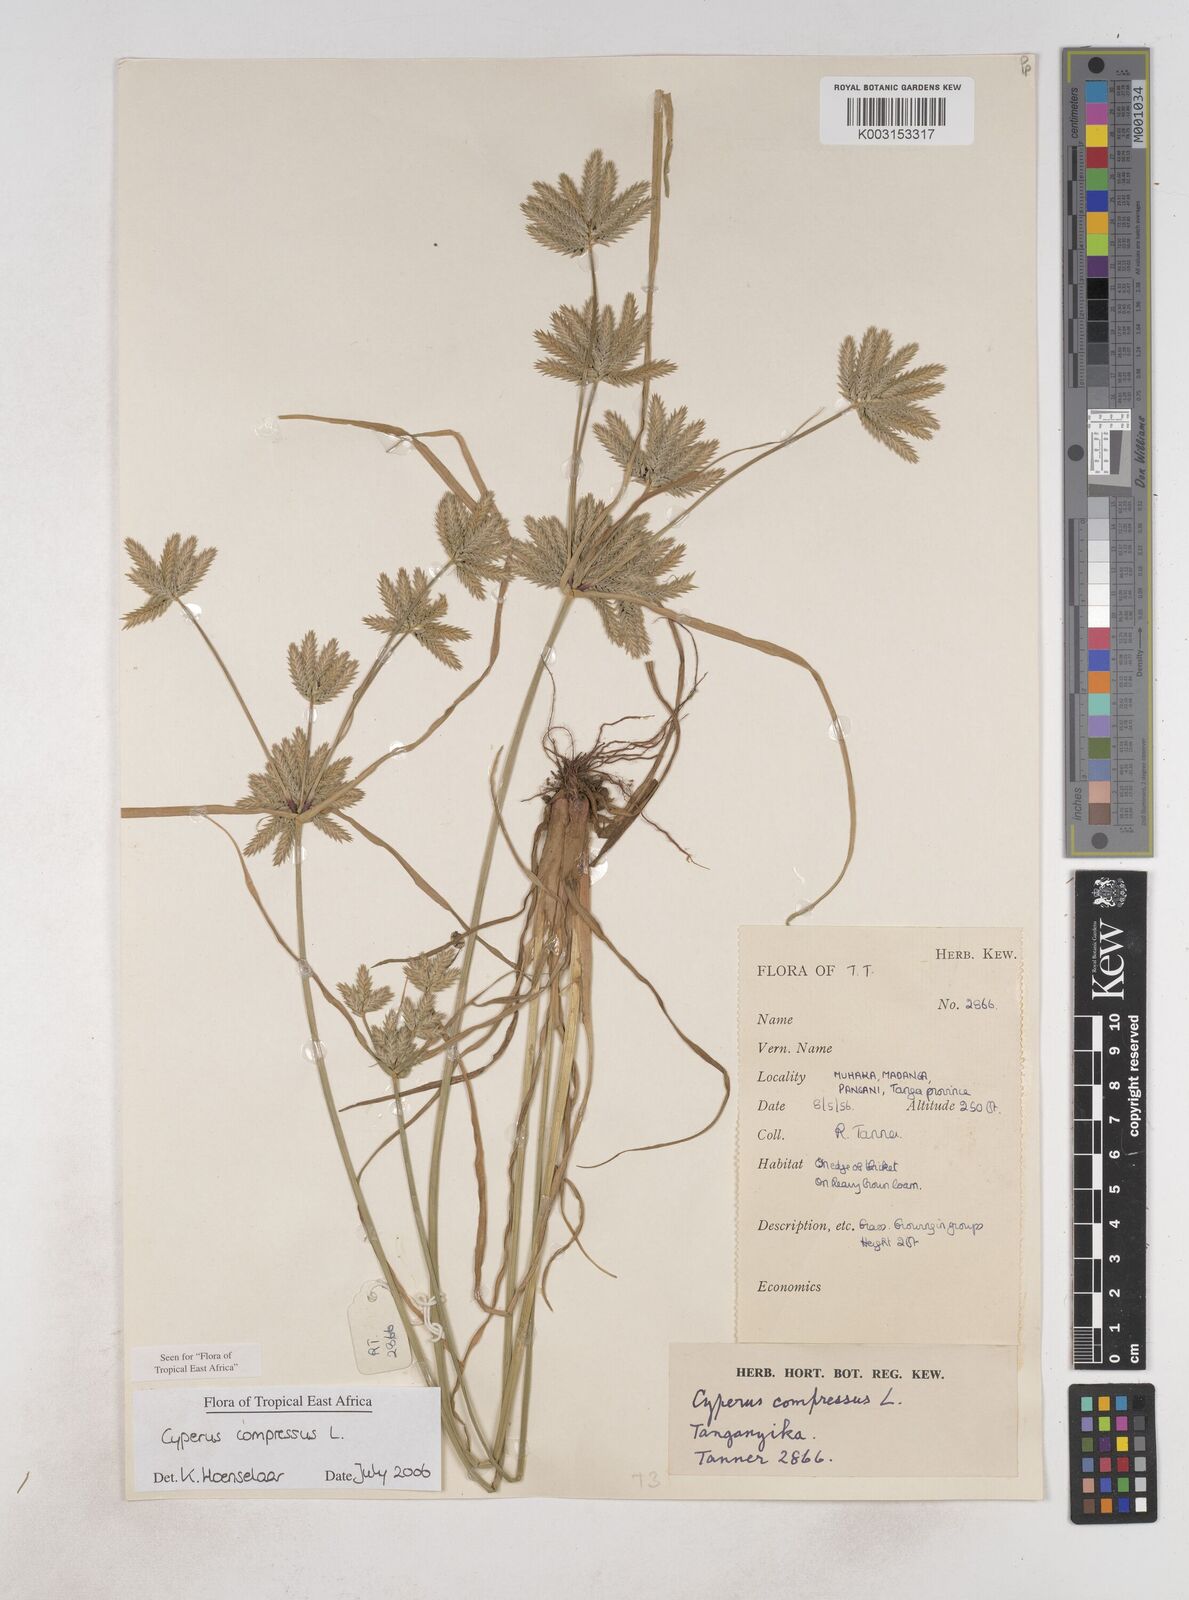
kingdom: Plantae
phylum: Tracheophyta
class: Liliopsida
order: Poales
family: Cyperaceae
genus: Cyperus
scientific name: Cyperus compressus
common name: Poorland flatsedge
